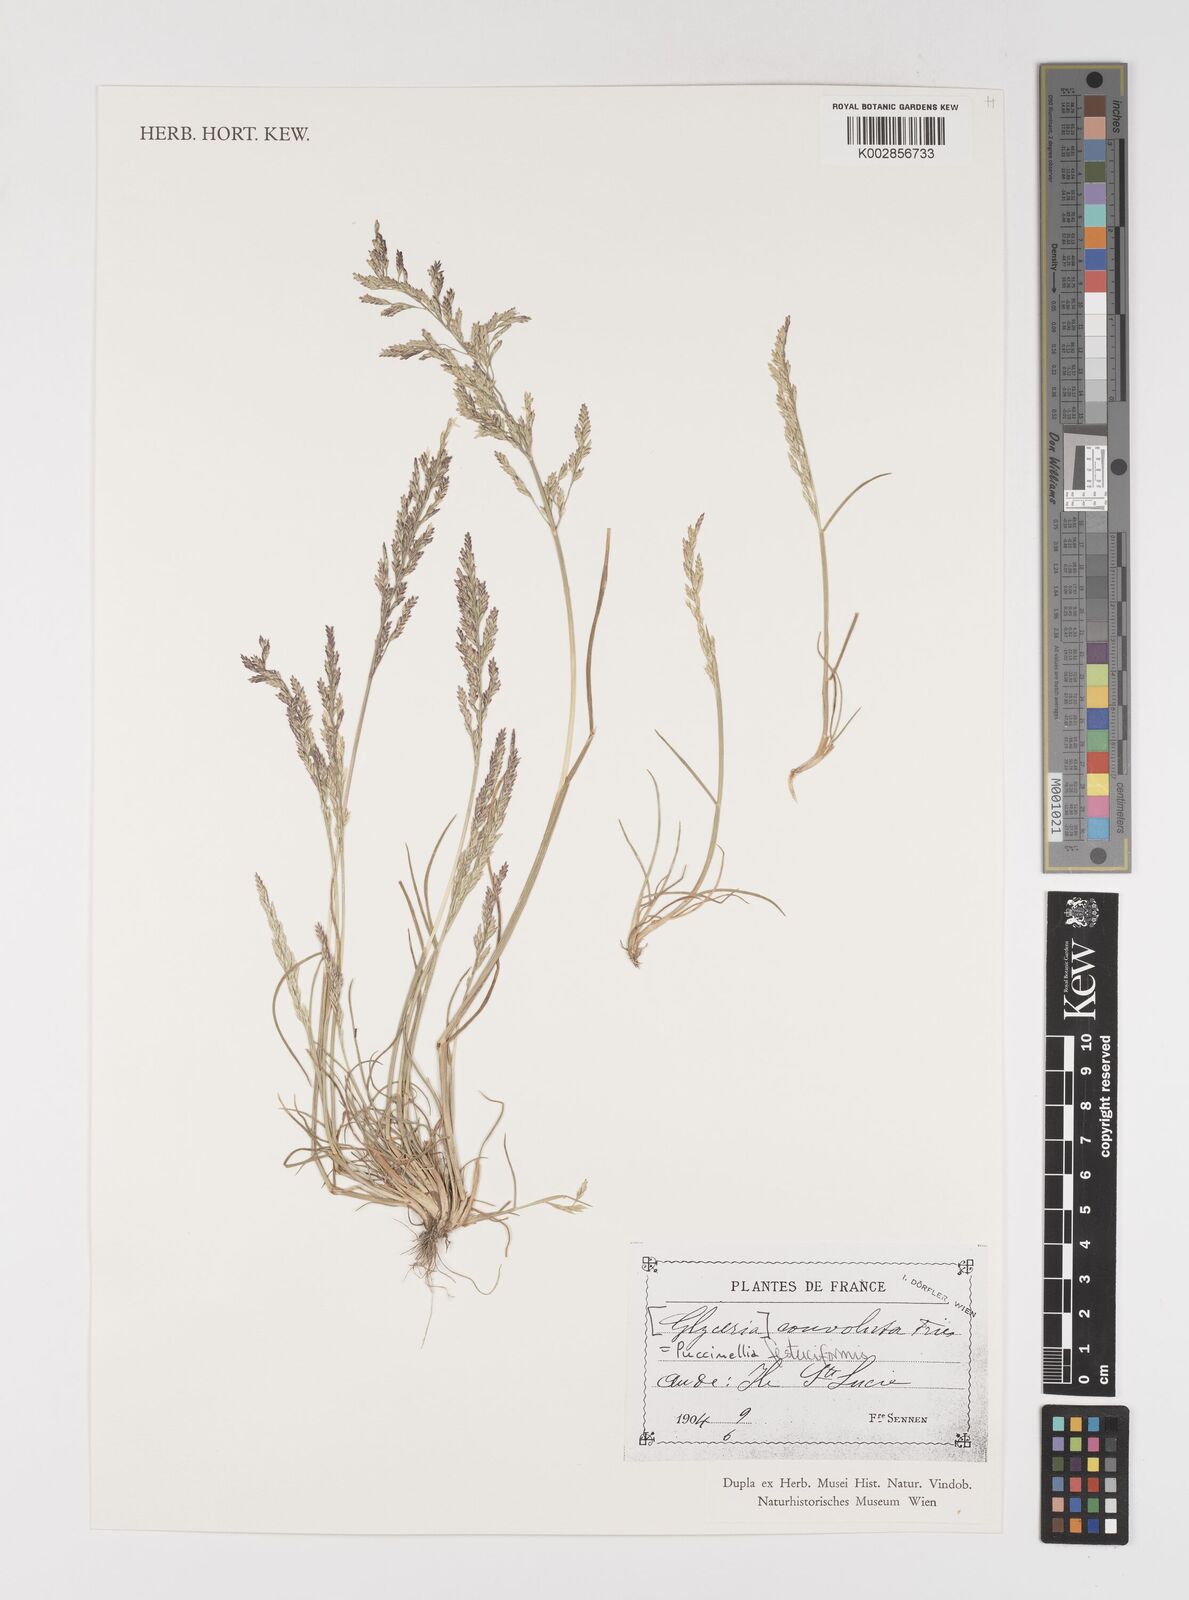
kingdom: Plantae
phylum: Tracheophyta
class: Liliopsida
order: Poales
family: Poaceae
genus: Puccinellia
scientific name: Puccinellia
